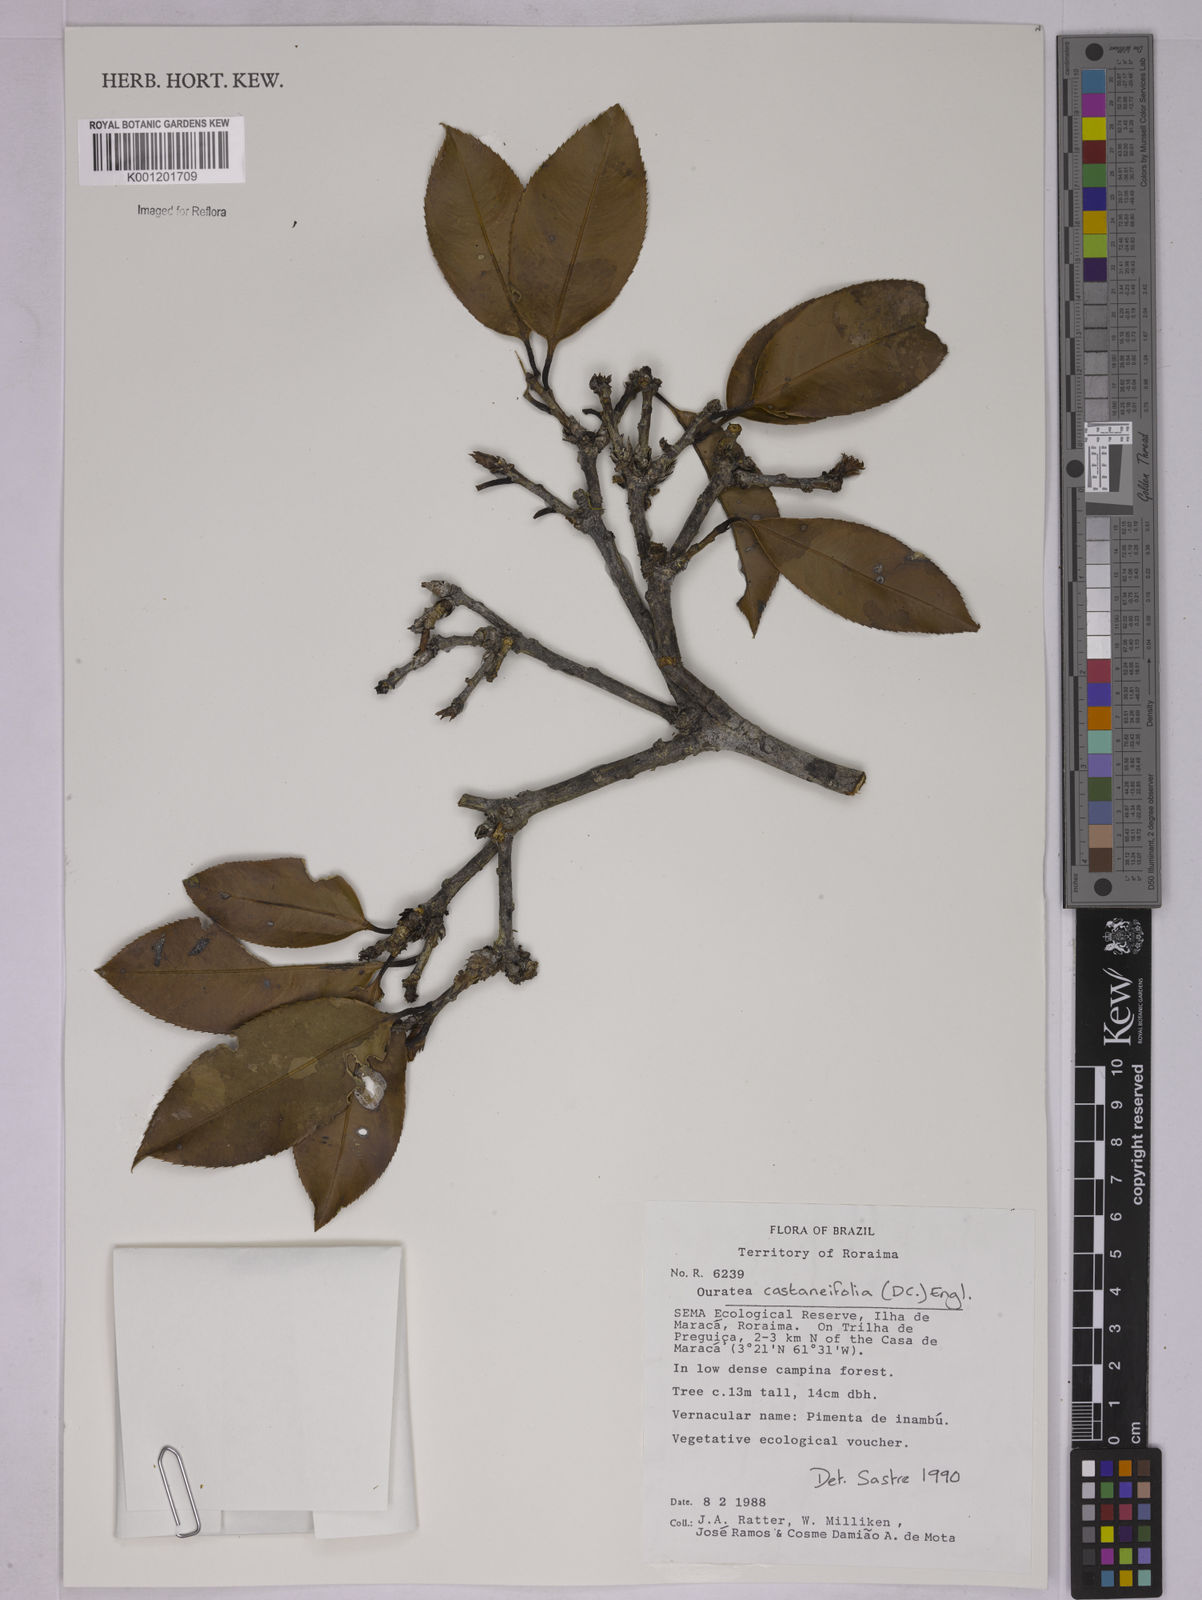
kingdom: Plantae
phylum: Tracheophyta
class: Magnoliopsida
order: Malpighiales
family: Ochnaceae
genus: Ouratea
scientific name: Ouratea castaneifolia
